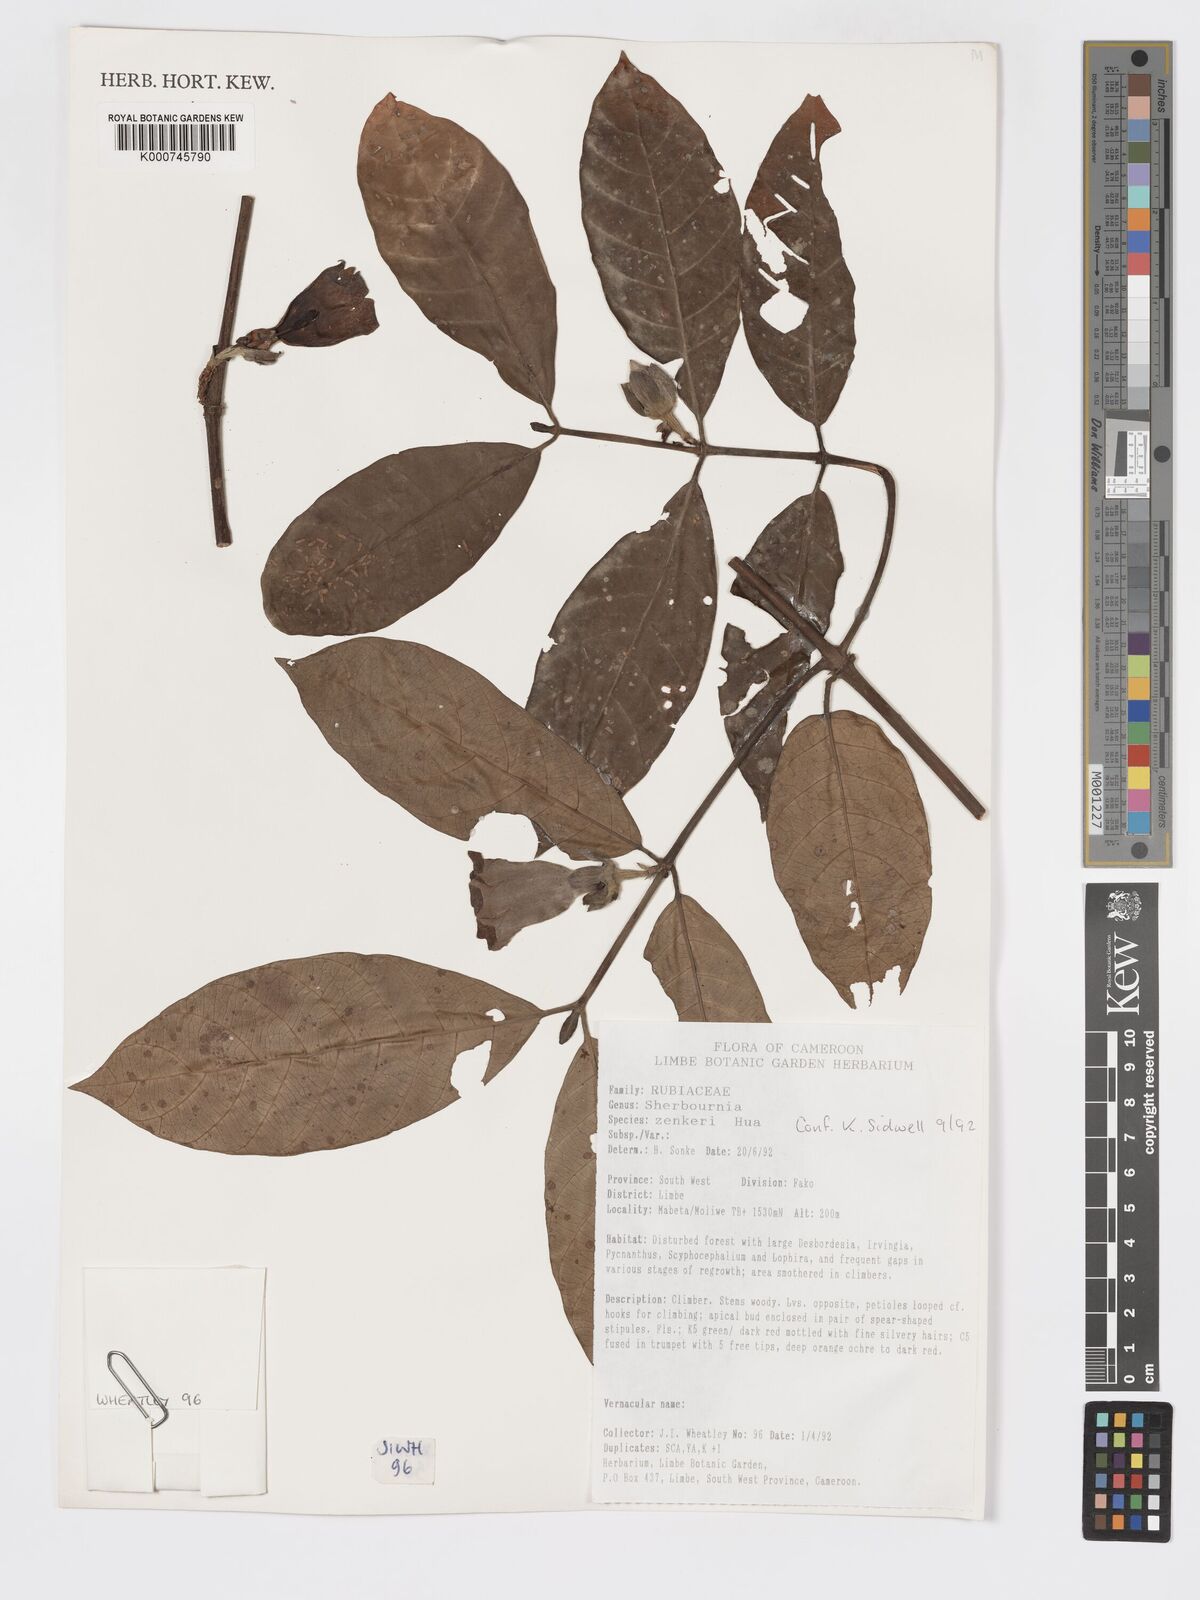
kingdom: Plantae
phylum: Tracheophyta
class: Magnoliopsida
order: Gentianales
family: Rubiaceae
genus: Sherbournia
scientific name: Sherbournia zenkeri
